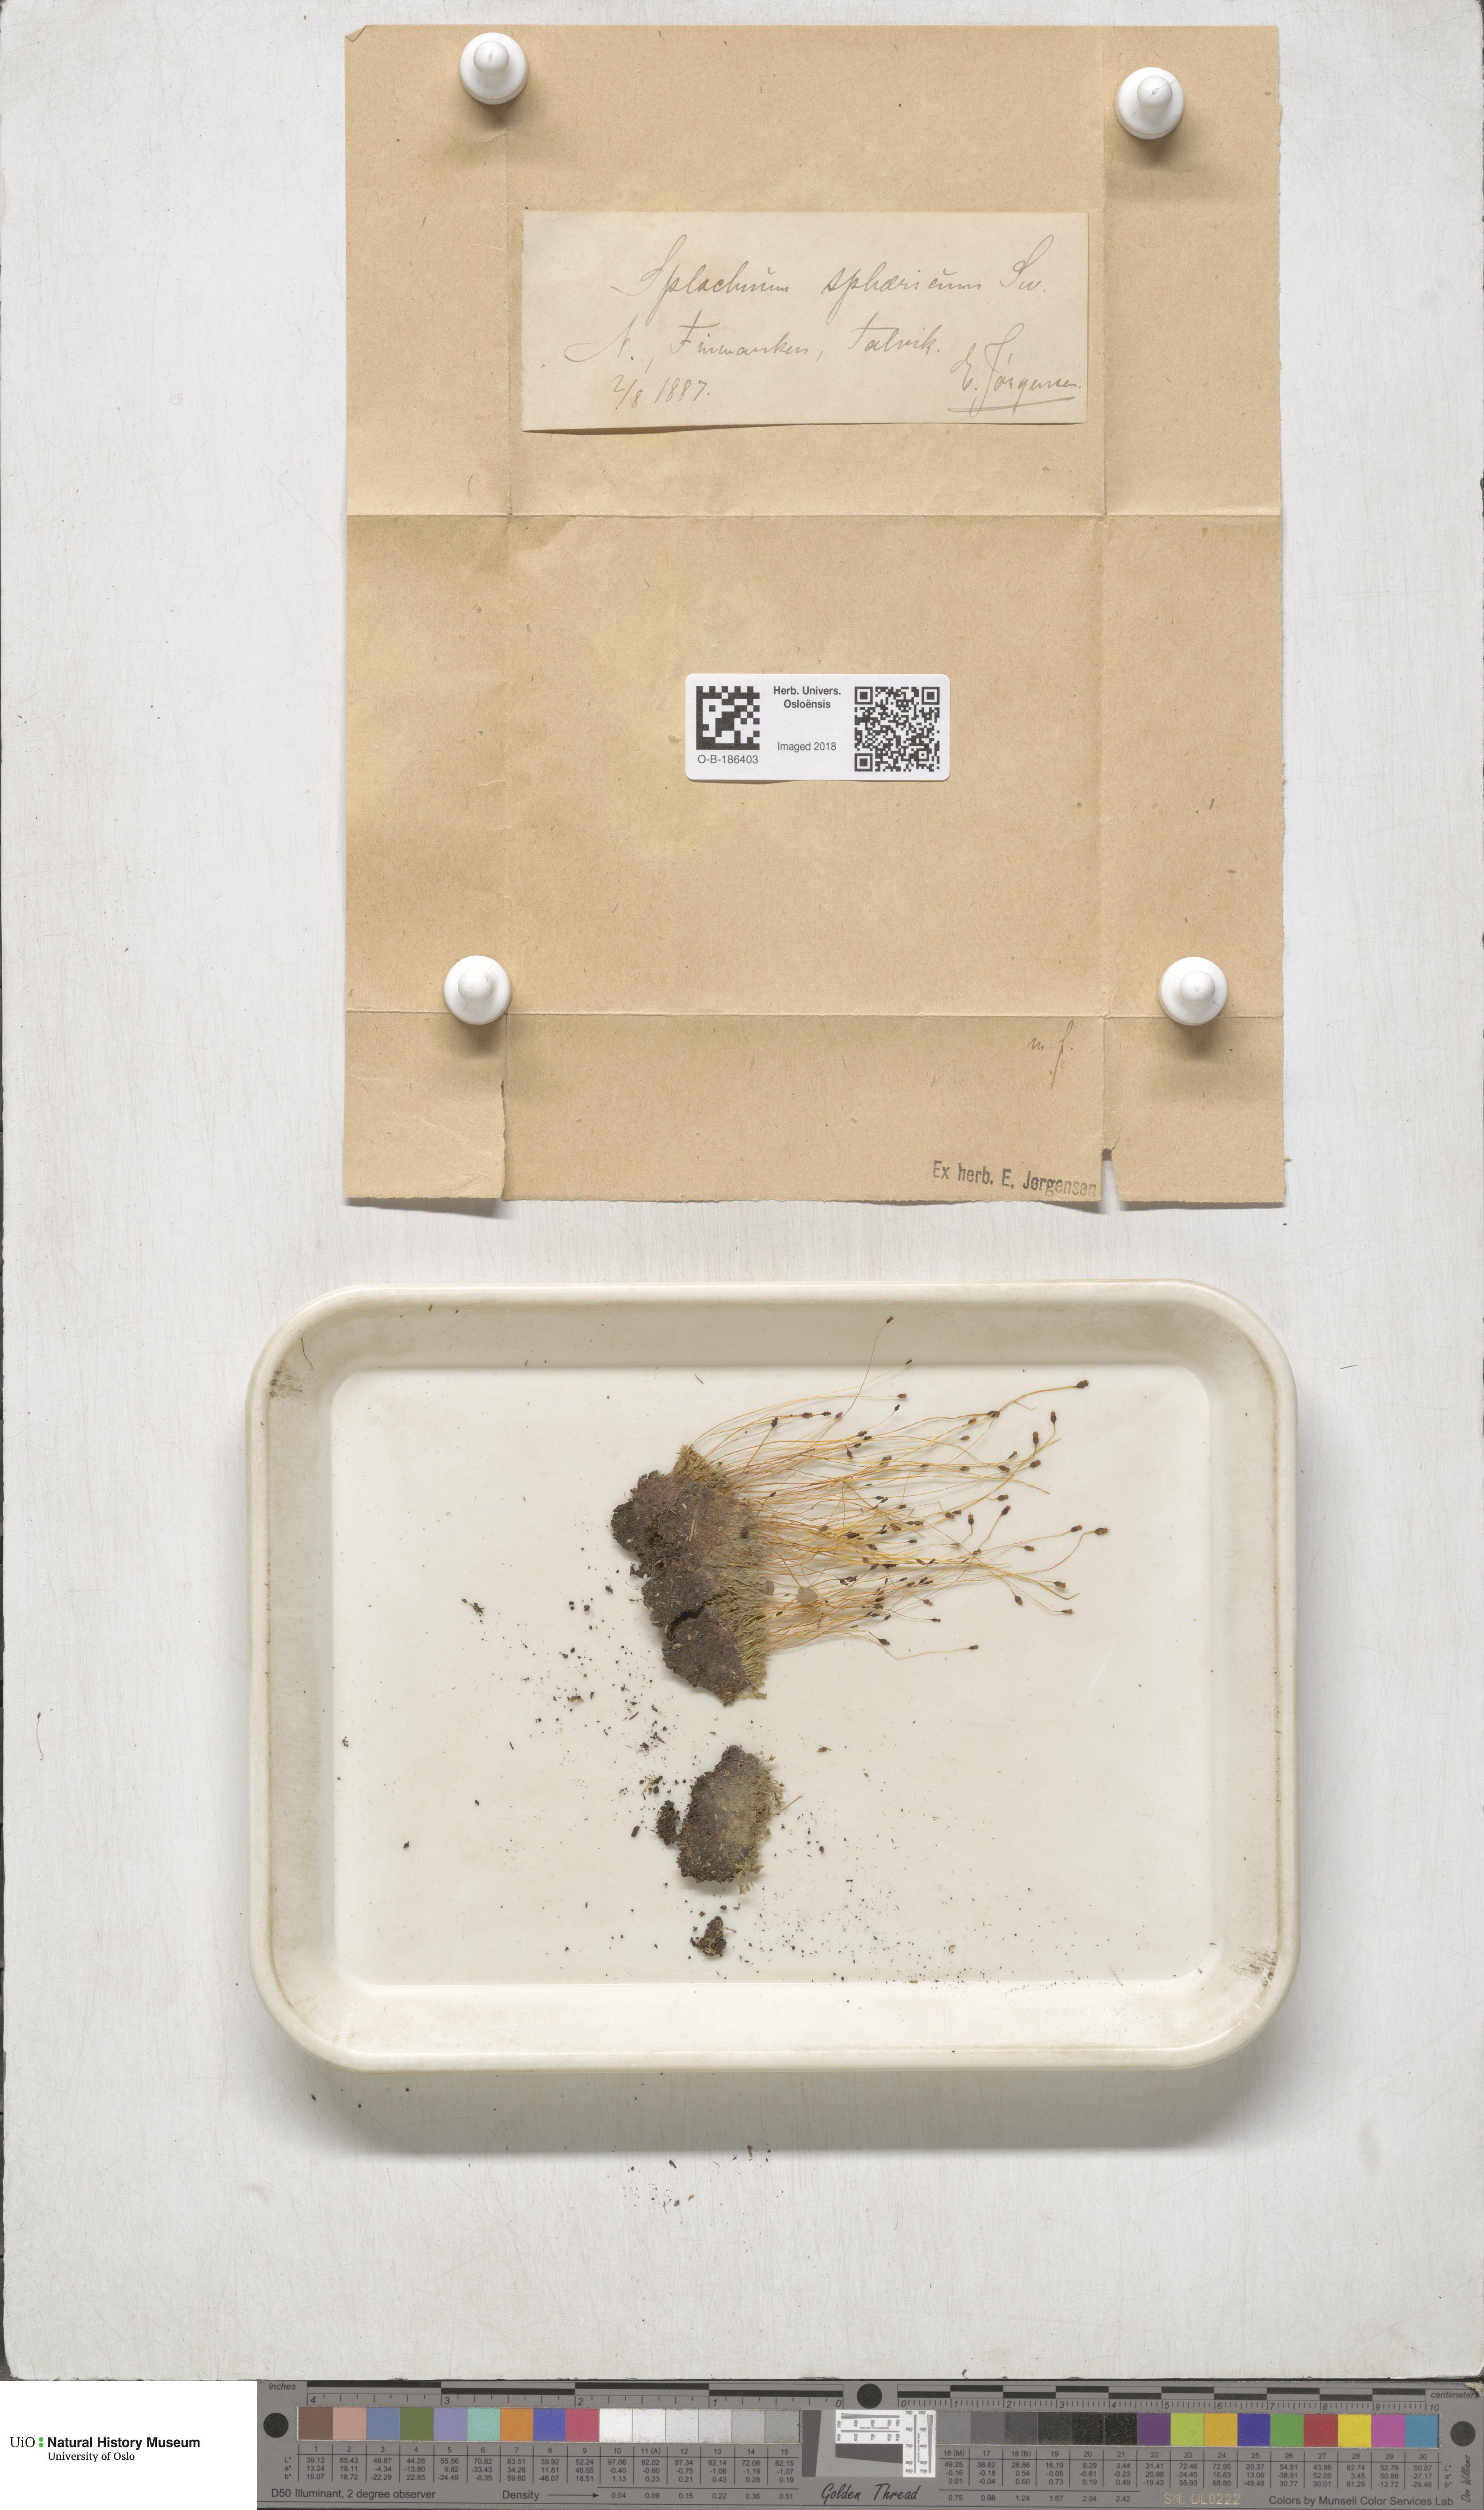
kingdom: Plantae
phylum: Bryophyta
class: Bryopsida
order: Splachnales
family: Splachnaceae
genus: Splachnum
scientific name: Splachnum sphaericum
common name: Round-fruited dung moss
